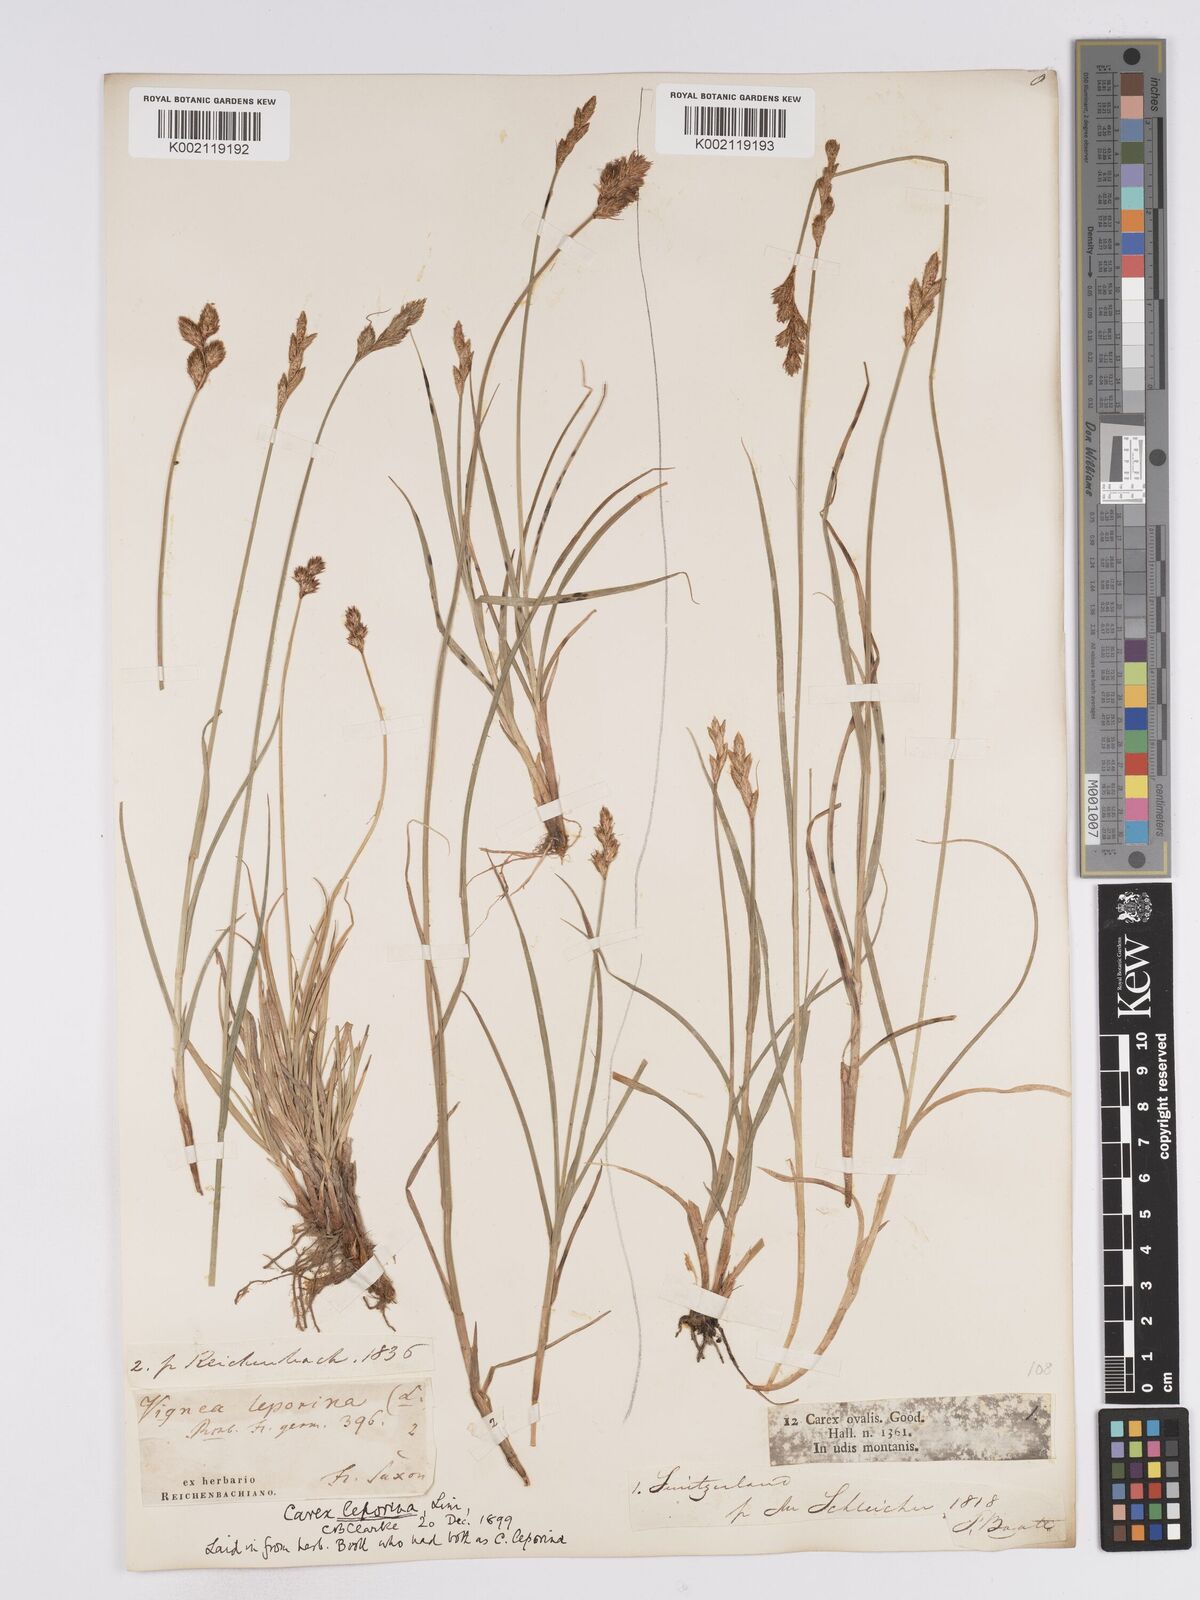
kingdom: Plantae
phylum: Tracheophyta
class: Liliopsida
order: Poales
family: Cyperaceae
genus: Carex
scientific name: Carex leporina
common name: Oval sedge
